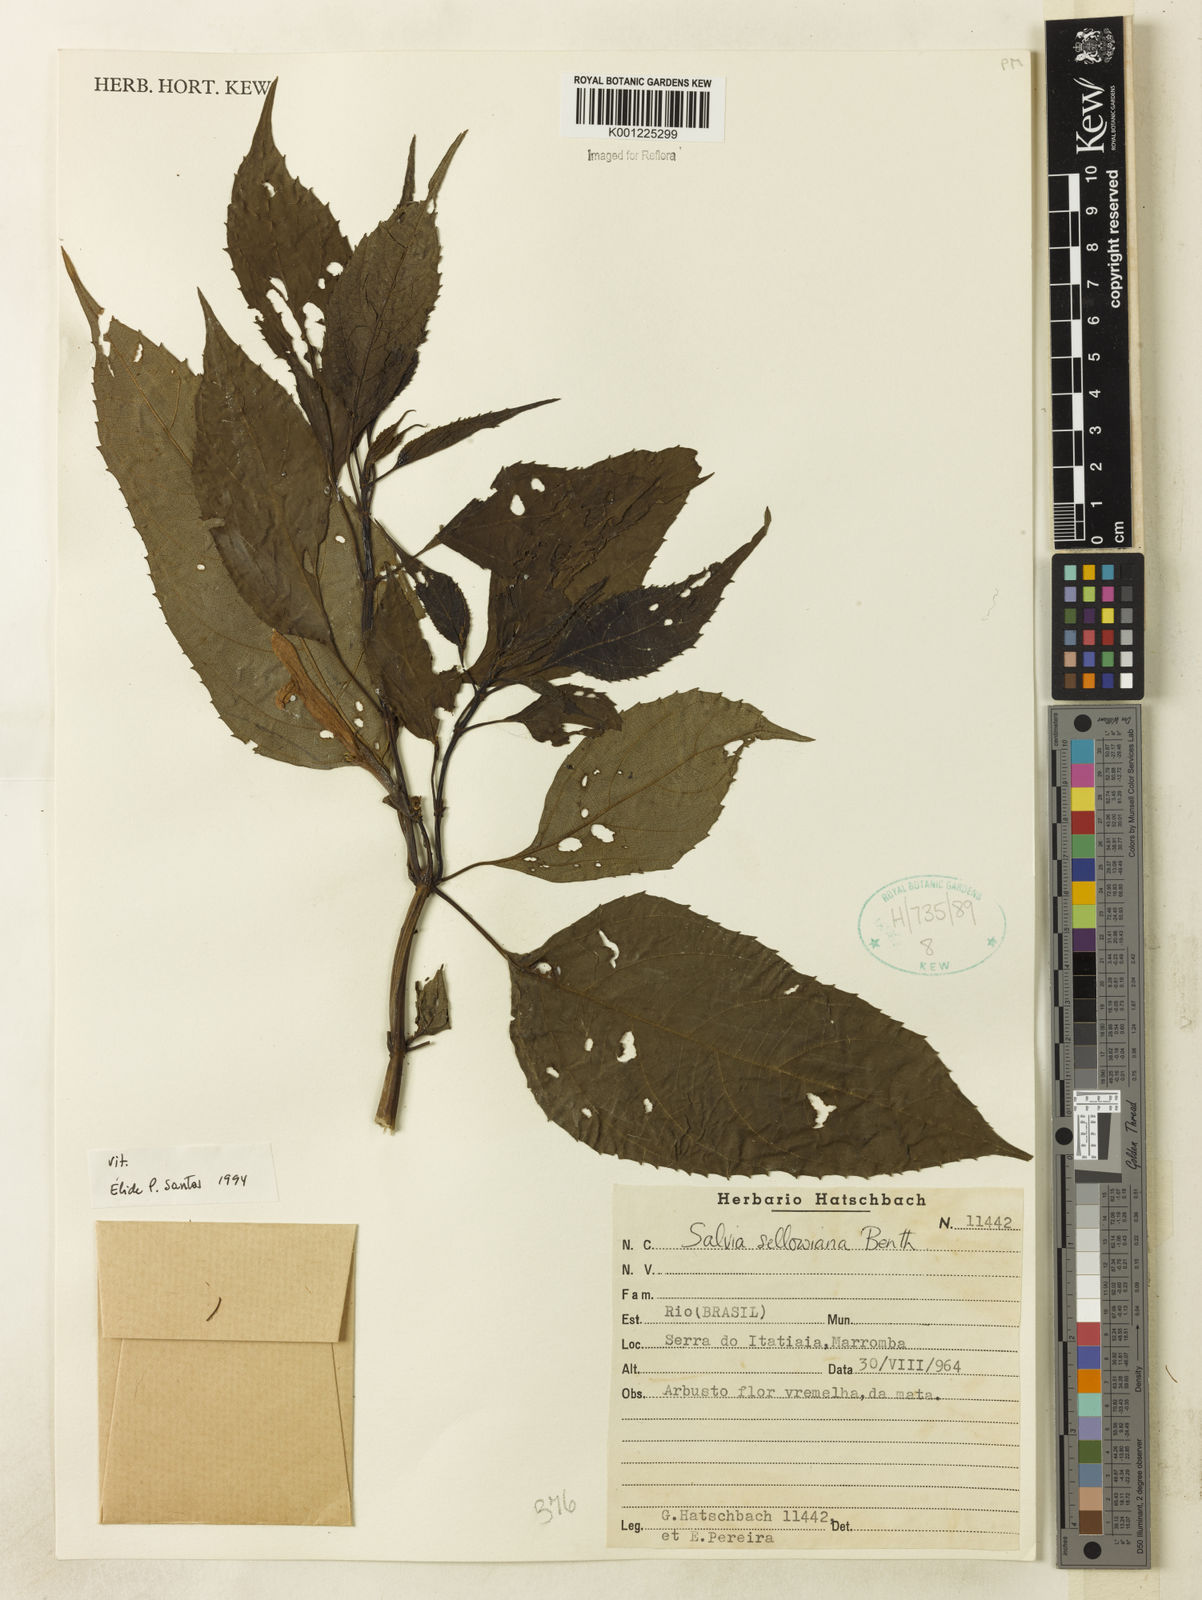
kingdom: Plantae
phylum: Tracheophyta
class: Magnoliopsida
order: Lamiales
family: Lamiaceae
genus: Salvia
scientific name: Salvia sellowiana
